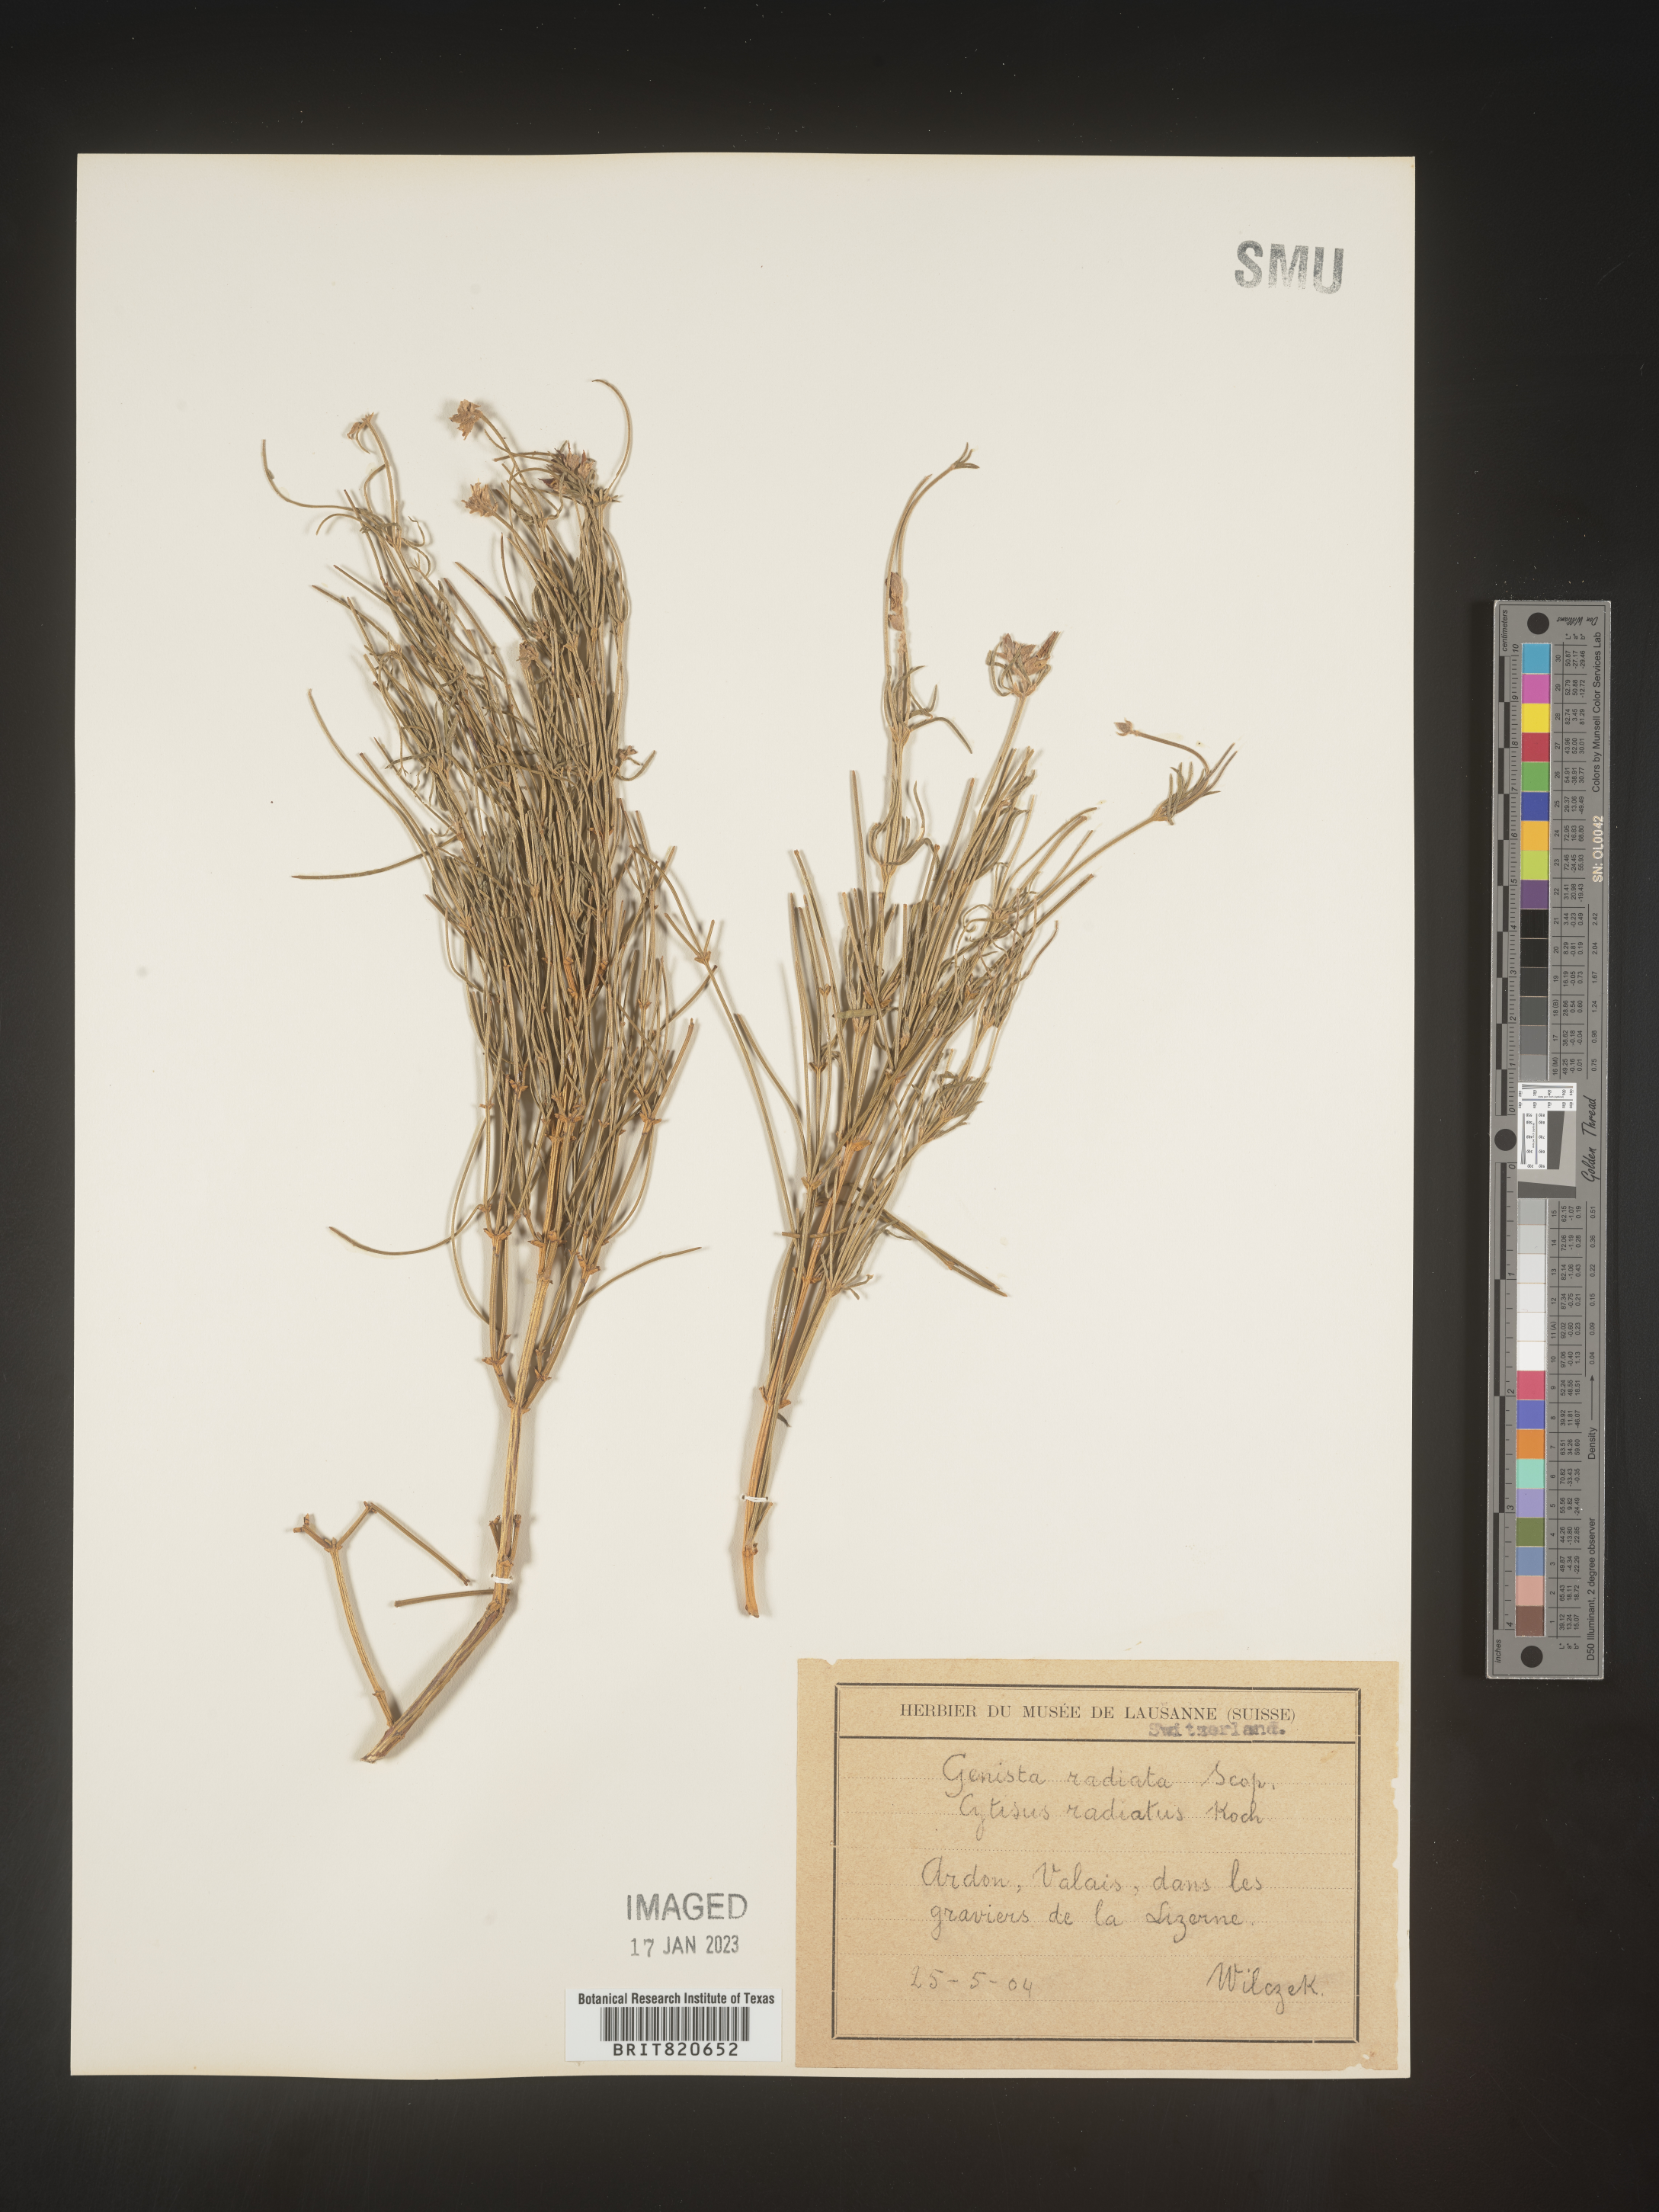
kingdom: Plantae
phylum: Tracheophyta
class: Magnoliopsida
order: Fabales
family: Fabaceae
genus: Genista
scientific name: Genista
